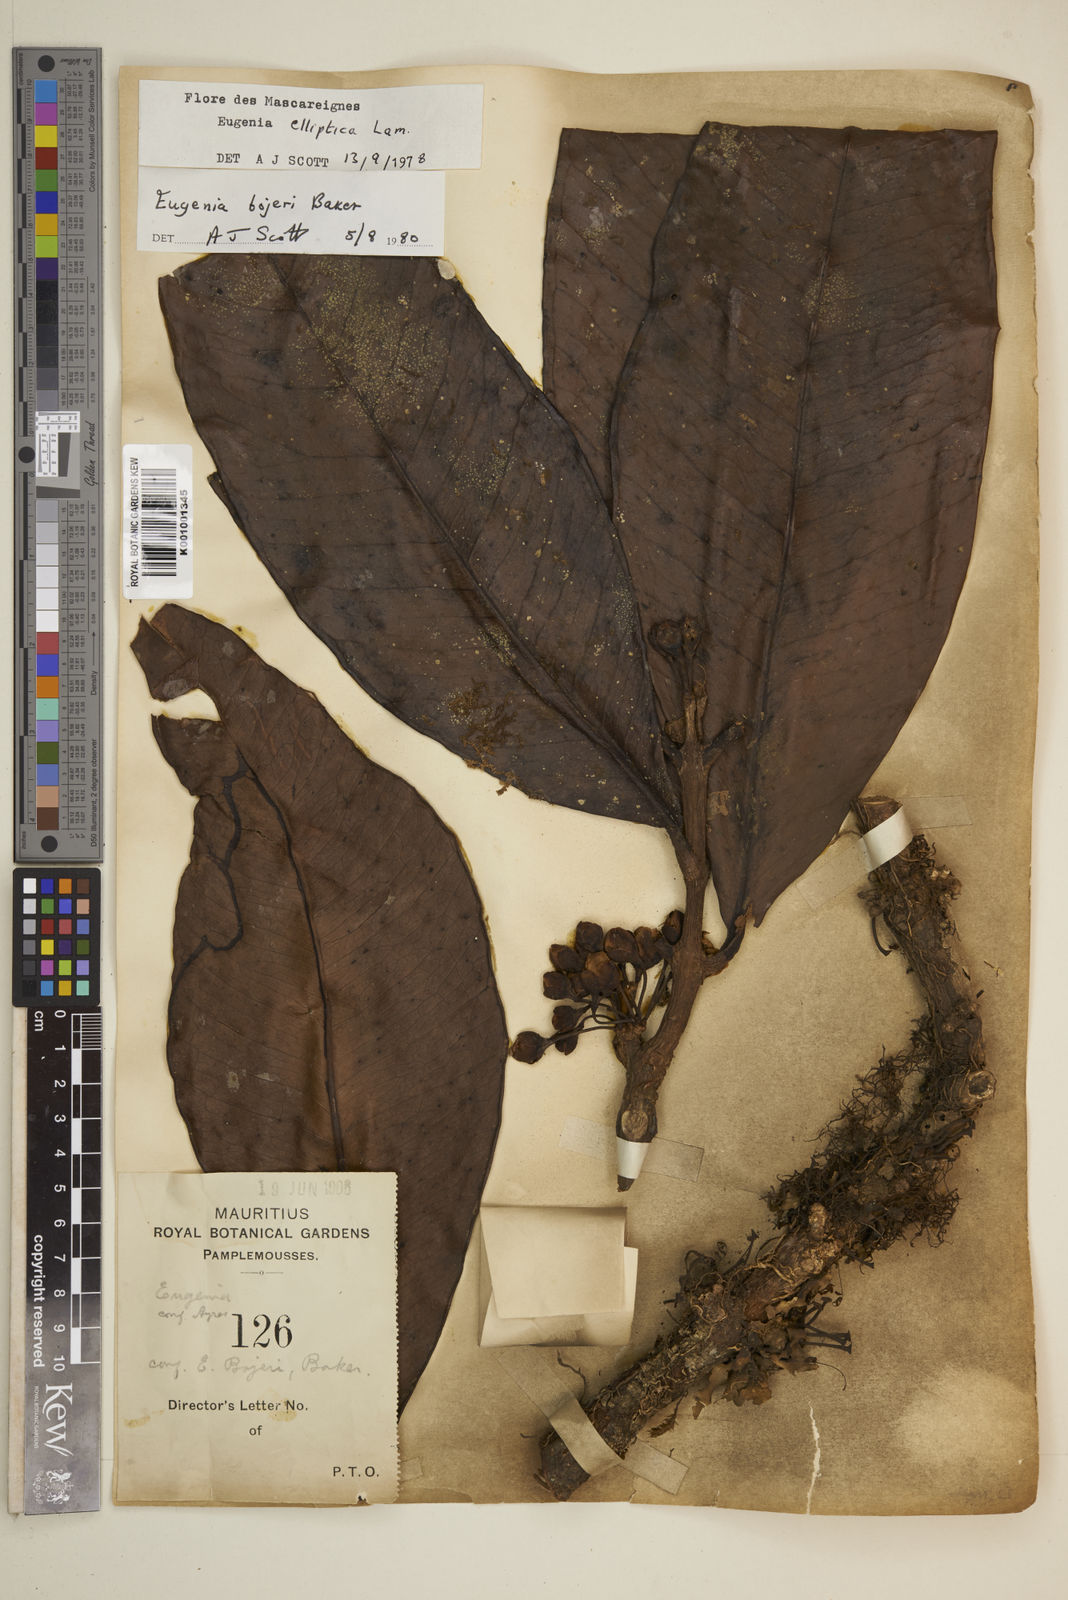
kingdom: Plantae
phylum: Tracheophyta
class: Magnoliopsida
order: Myrtales
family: Myrtaceae
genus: Eugenia
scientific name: Eugenia elliptica
